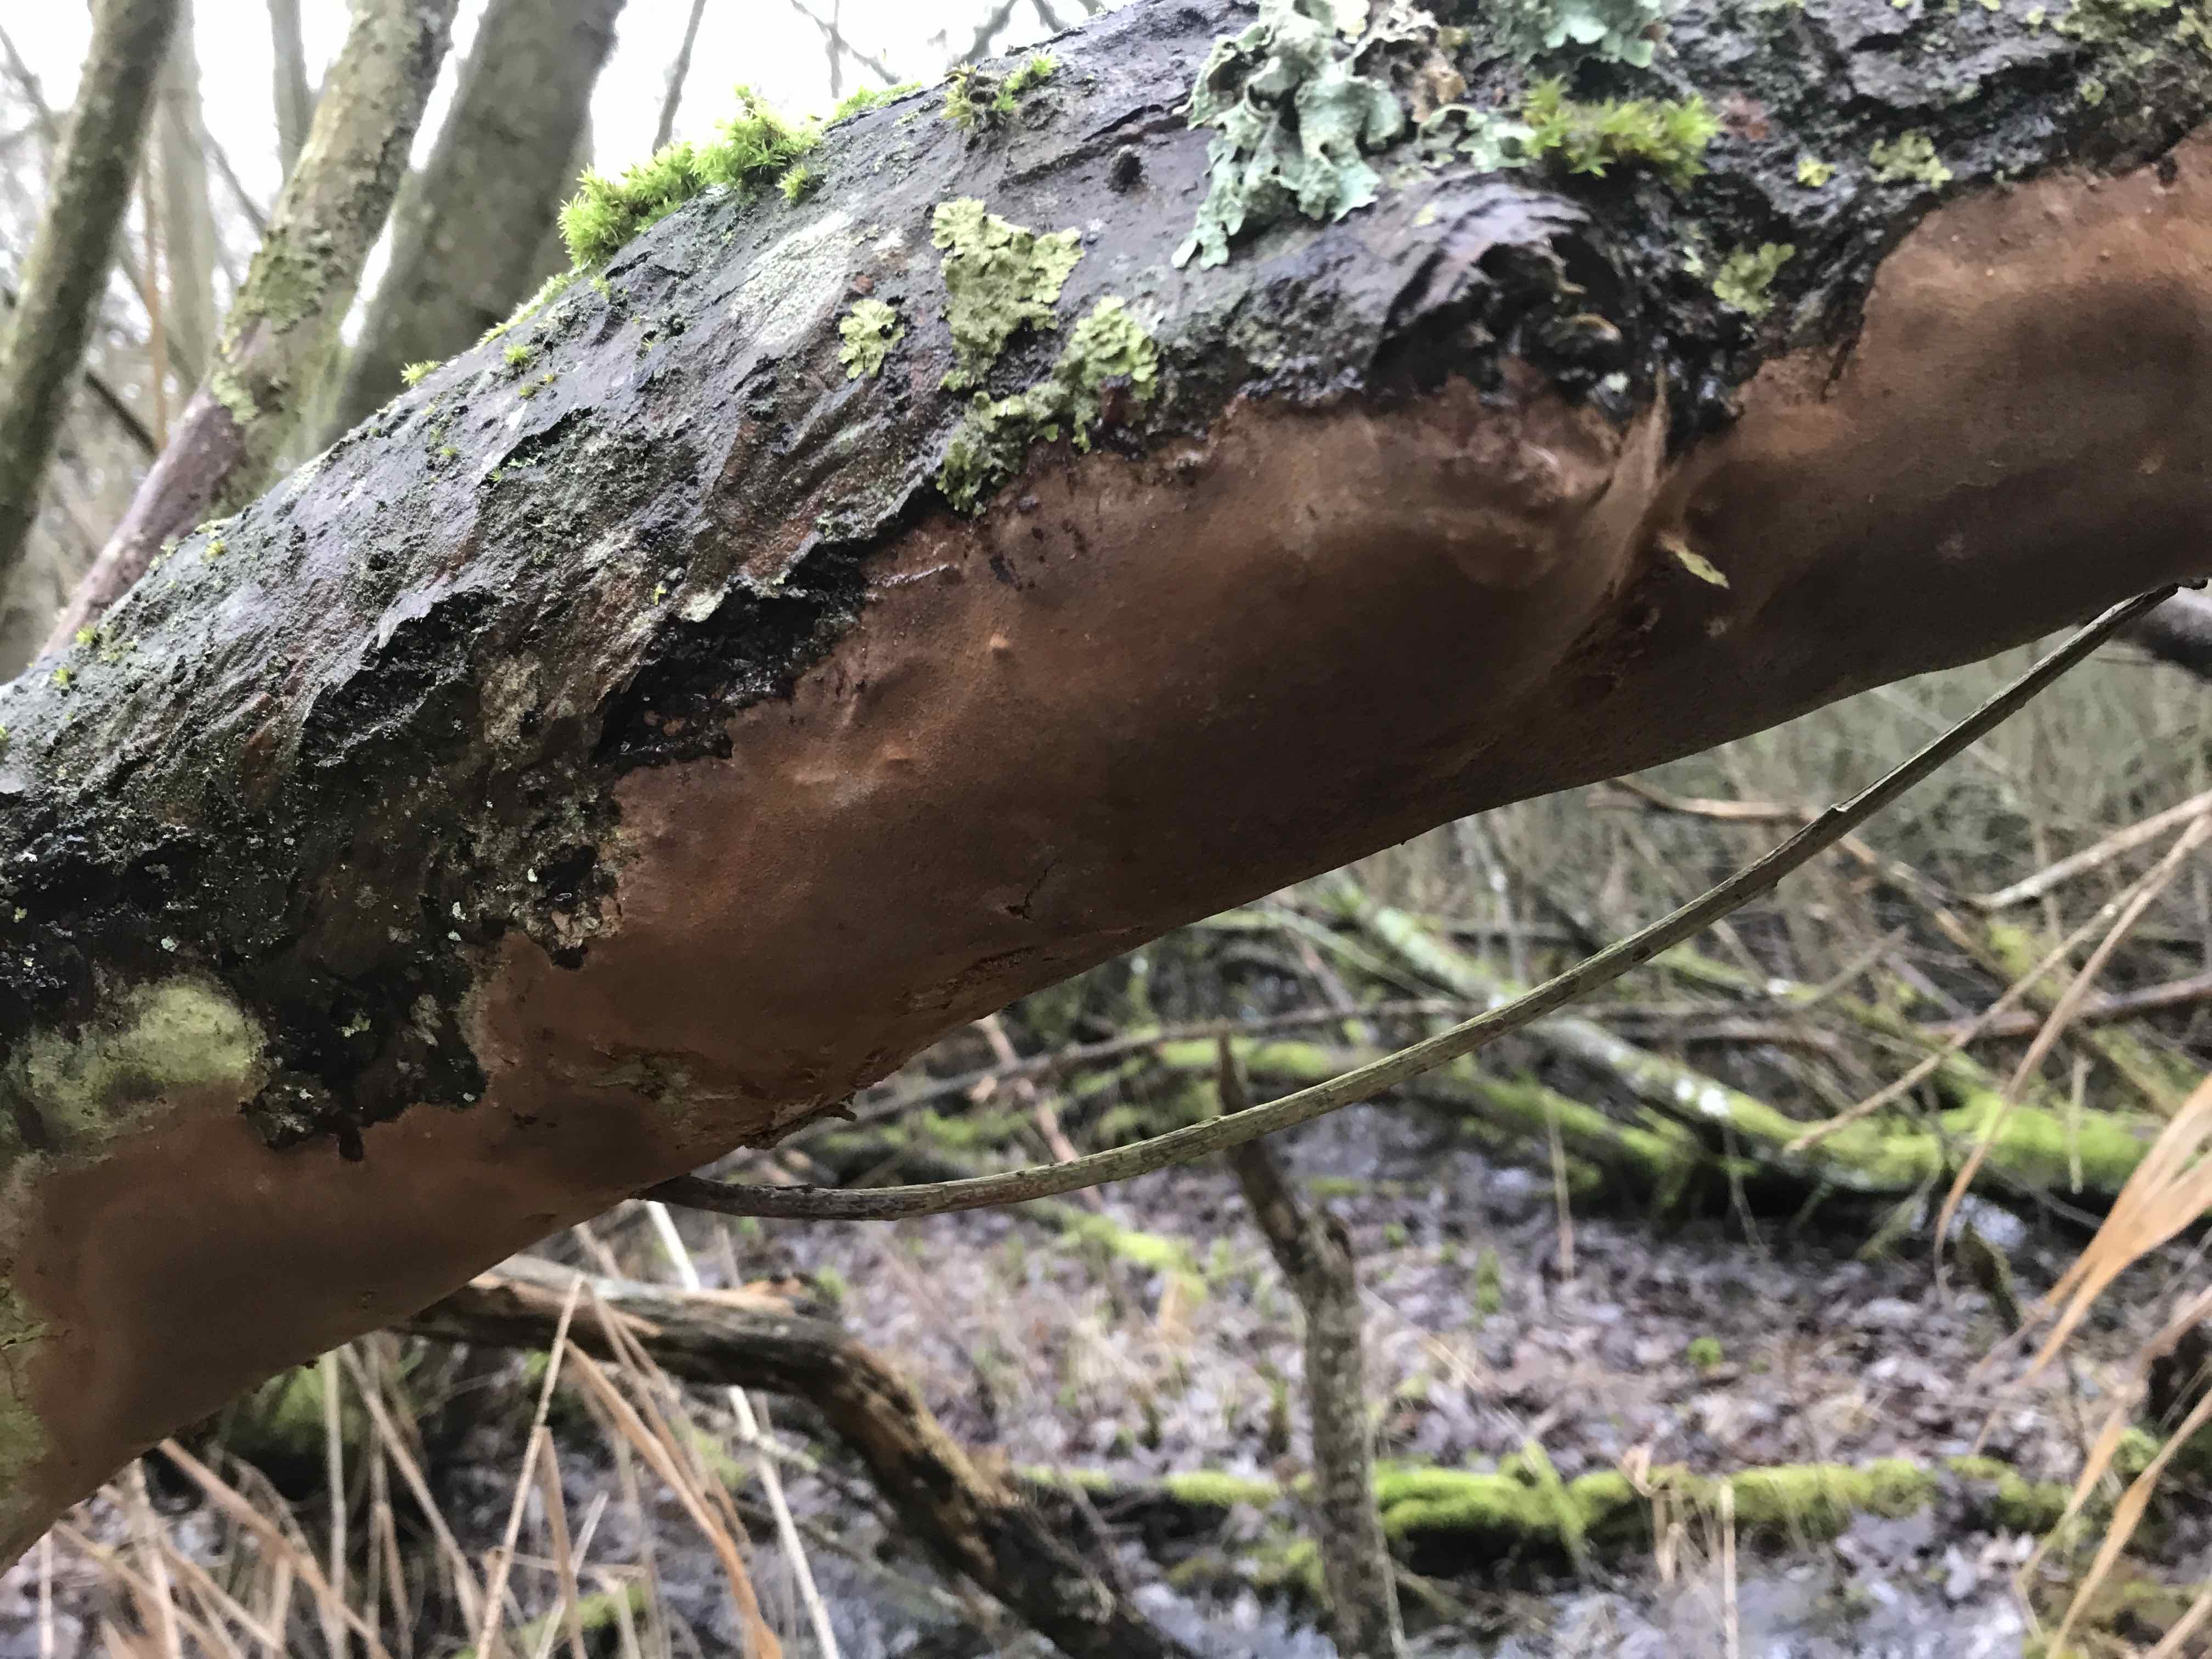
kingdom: Fungi
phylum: Basidiomycota
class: Agaricomycetes
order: Hymenochaetales
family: Hymenochaetaceae
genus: Fomitiporia
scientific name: Fomitiporia punctata
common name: pude-ildporesvamp
